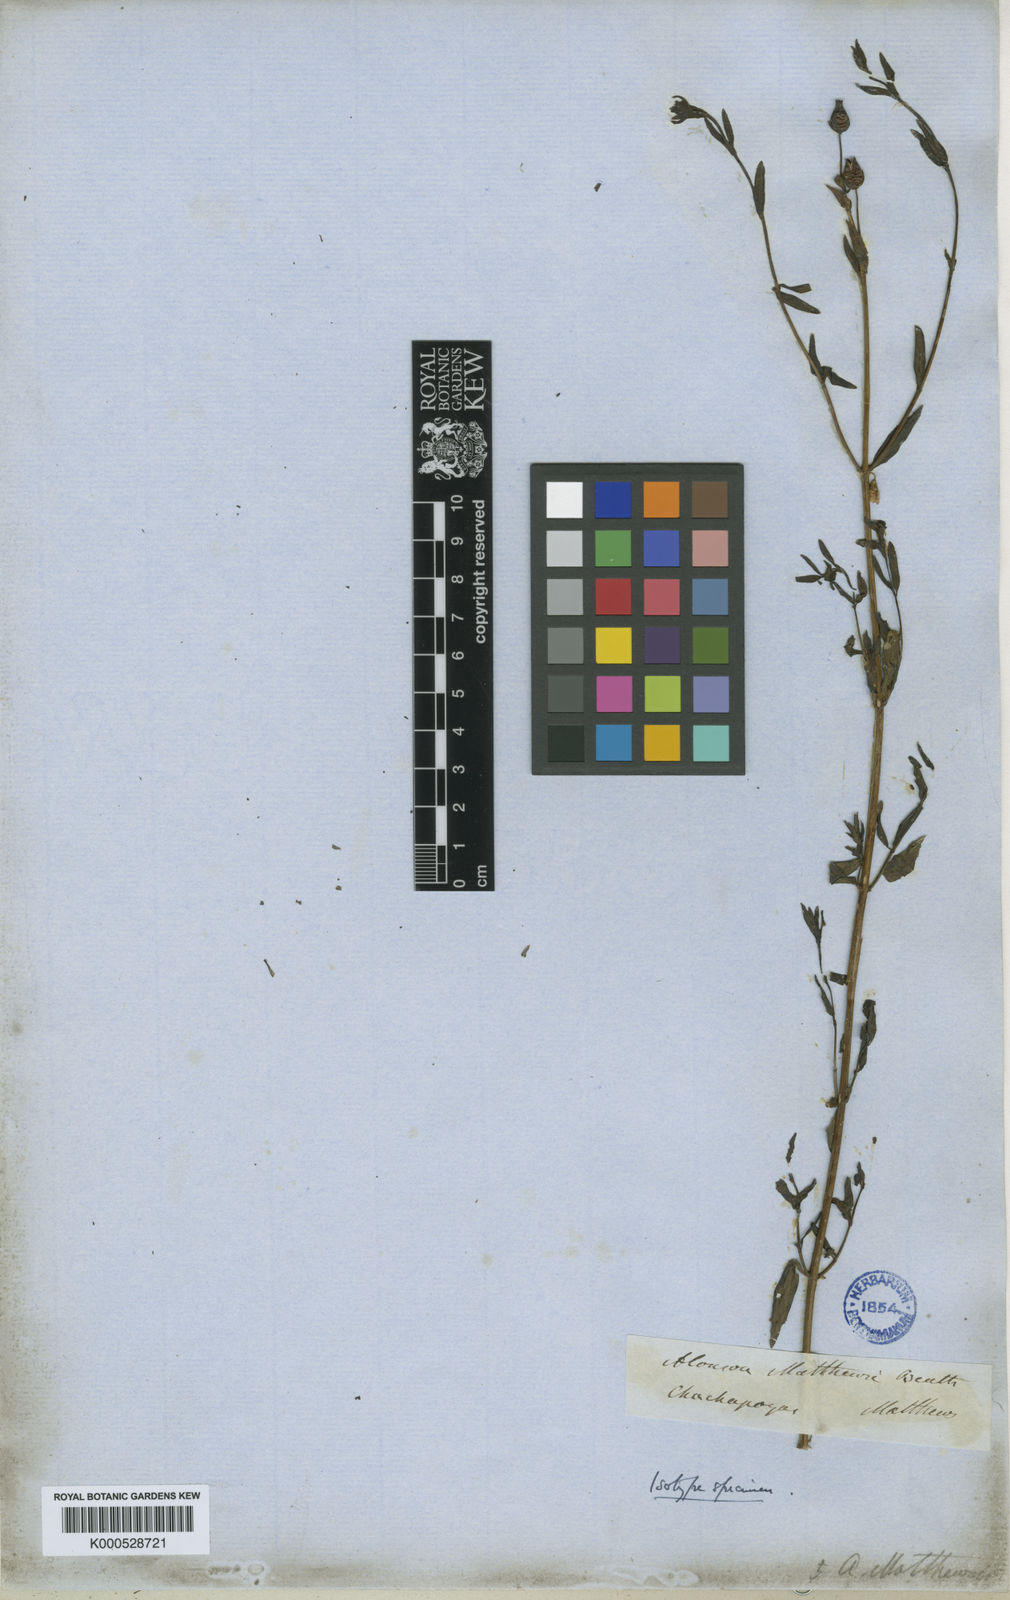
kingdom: Plantae
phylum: Tracheophyta
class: Magnoliopsida
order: Lamiales
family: Scrophulariaceae
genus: Alonsoa
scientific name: Alonsoa minor
